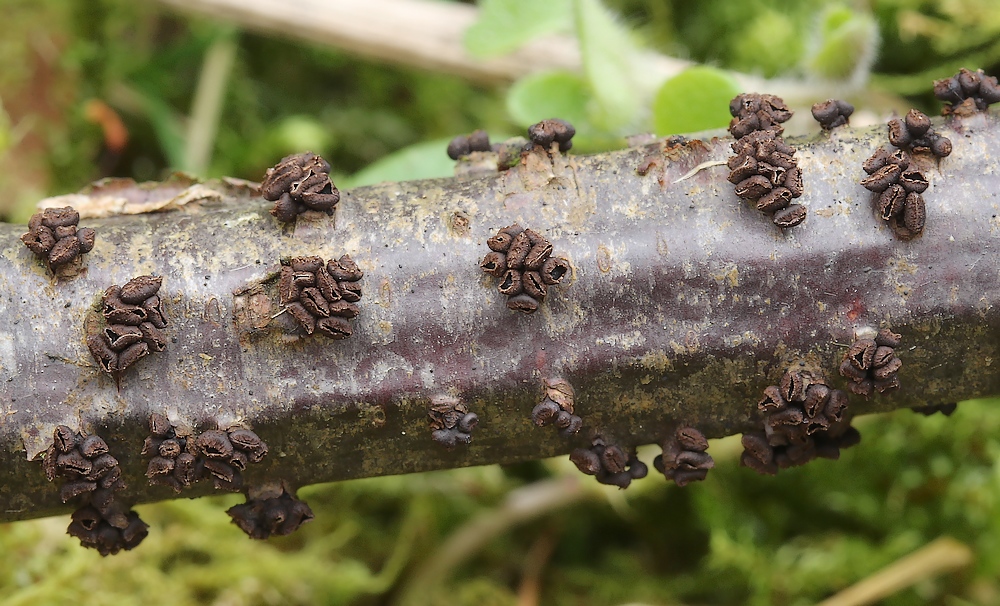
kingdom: Fungi
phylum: Ascomycota
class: Leotiomycetes
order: Helotiales
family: Godroniaceae
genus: Godronia
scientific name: Godronia uberiformis
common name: solbær-urneskive
